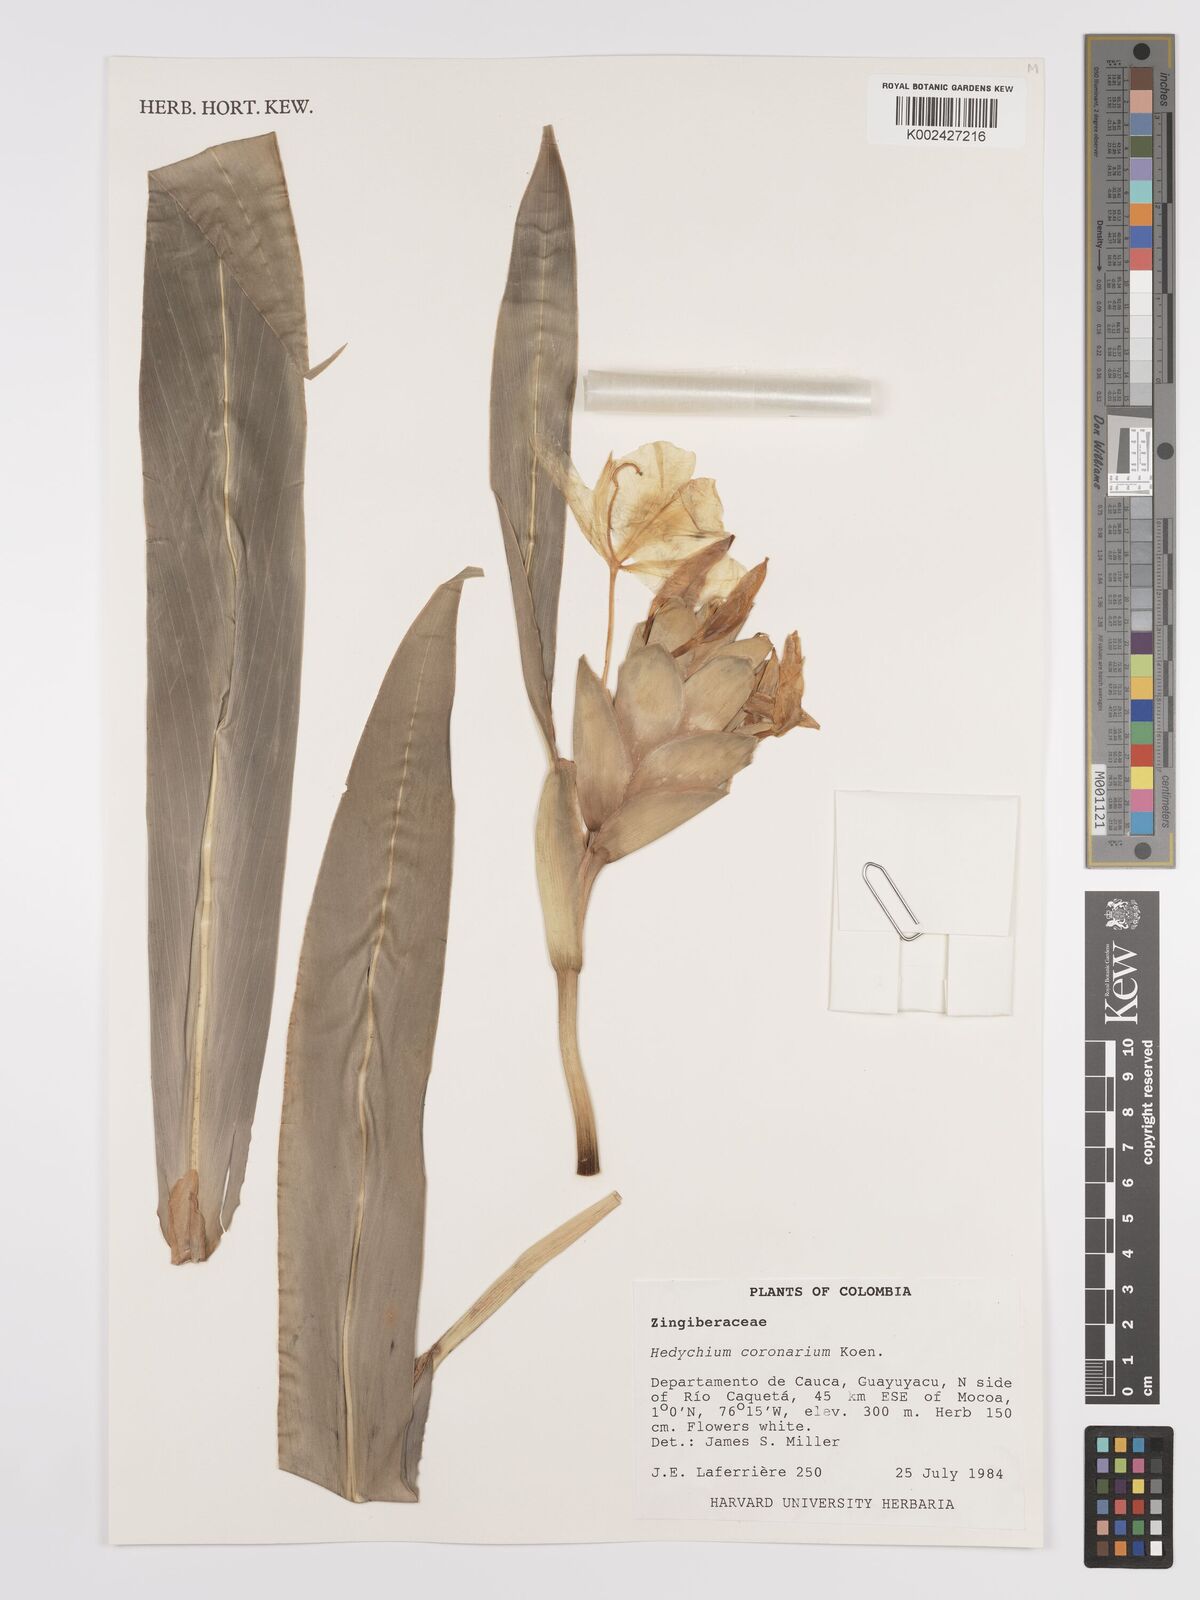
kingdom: Plantae
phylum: Tracheophyta
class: Liliopsida
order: Zingiberales
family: Zingiberaceae
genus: Hedychium
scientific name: Hedychium coronarium
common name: White garland-lily
